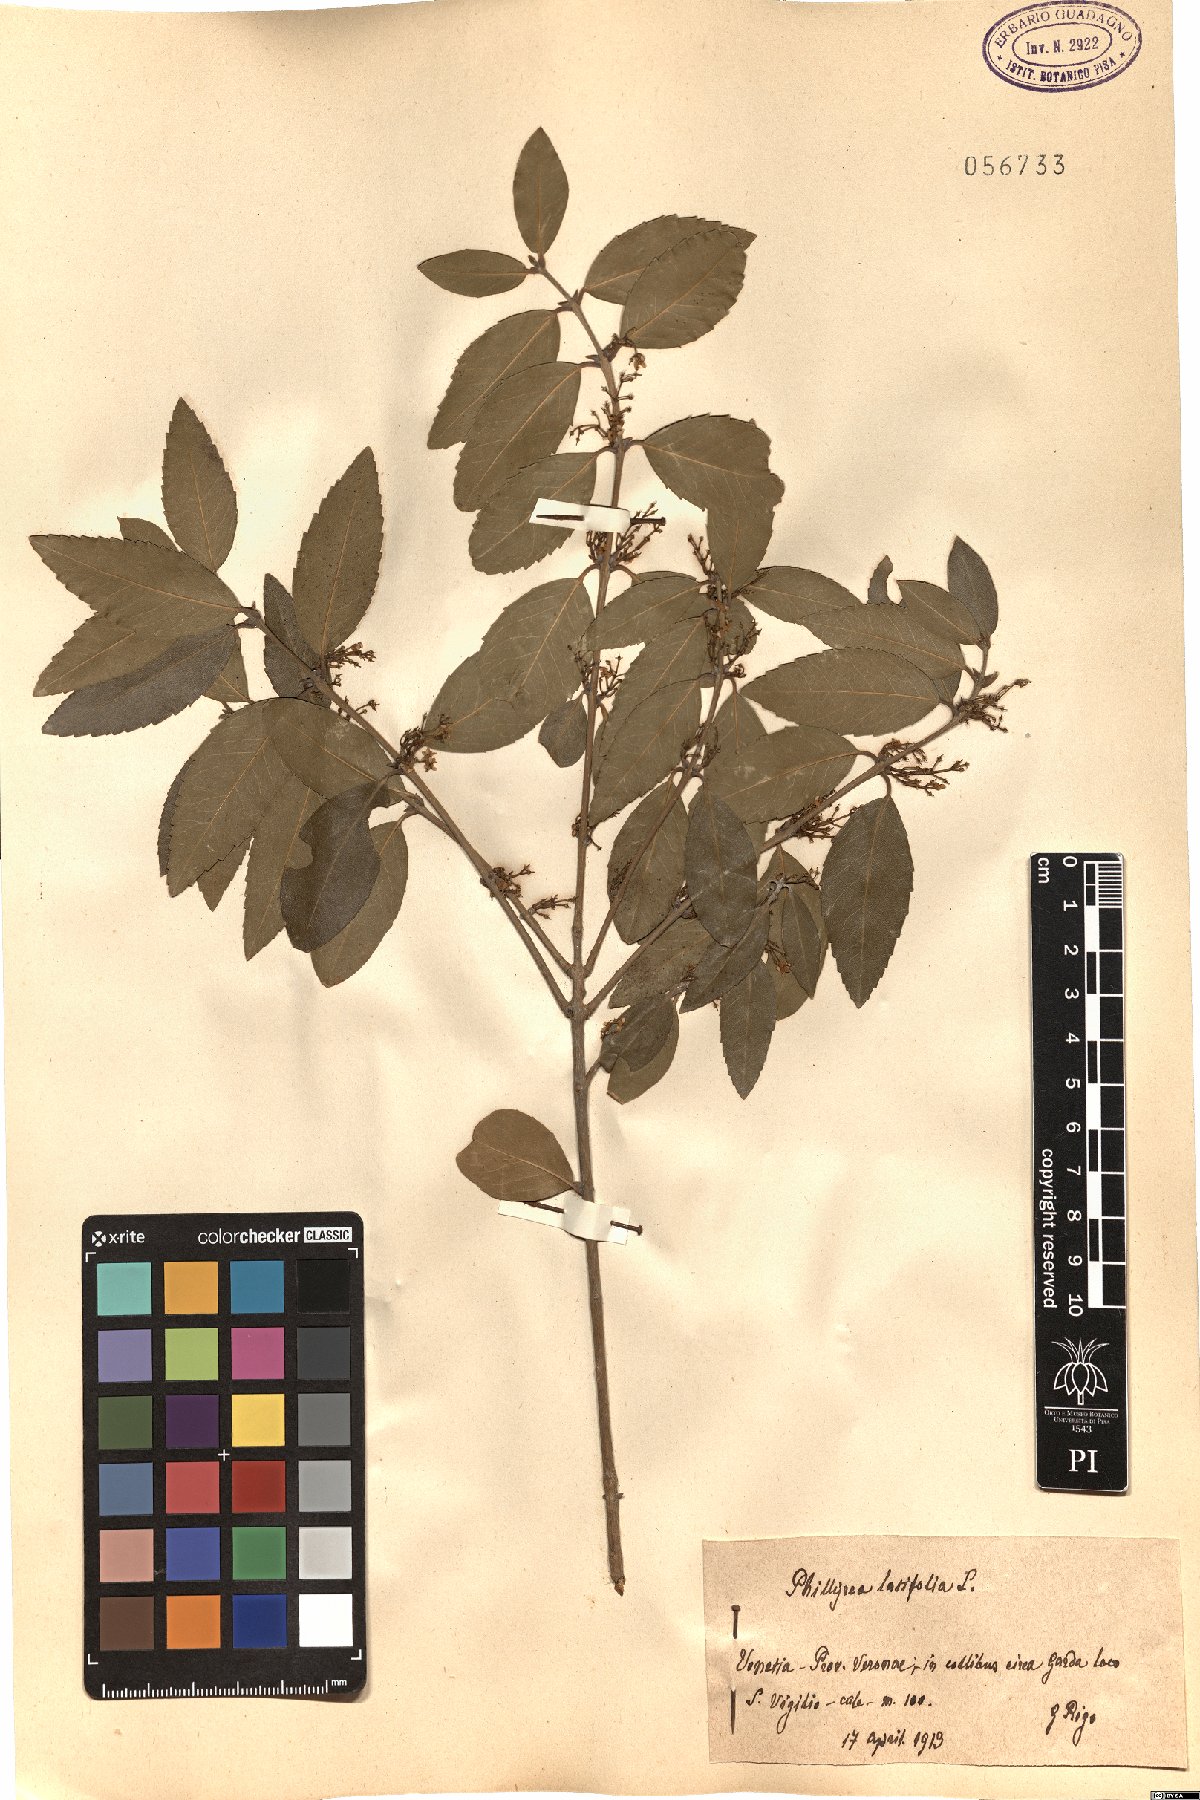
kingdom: Plantae
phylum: Tracheophyta
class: Magnoliopsida
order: Lamiales
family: Oleaceae
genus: Phillyrea
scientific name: Phillyrea latifolia
